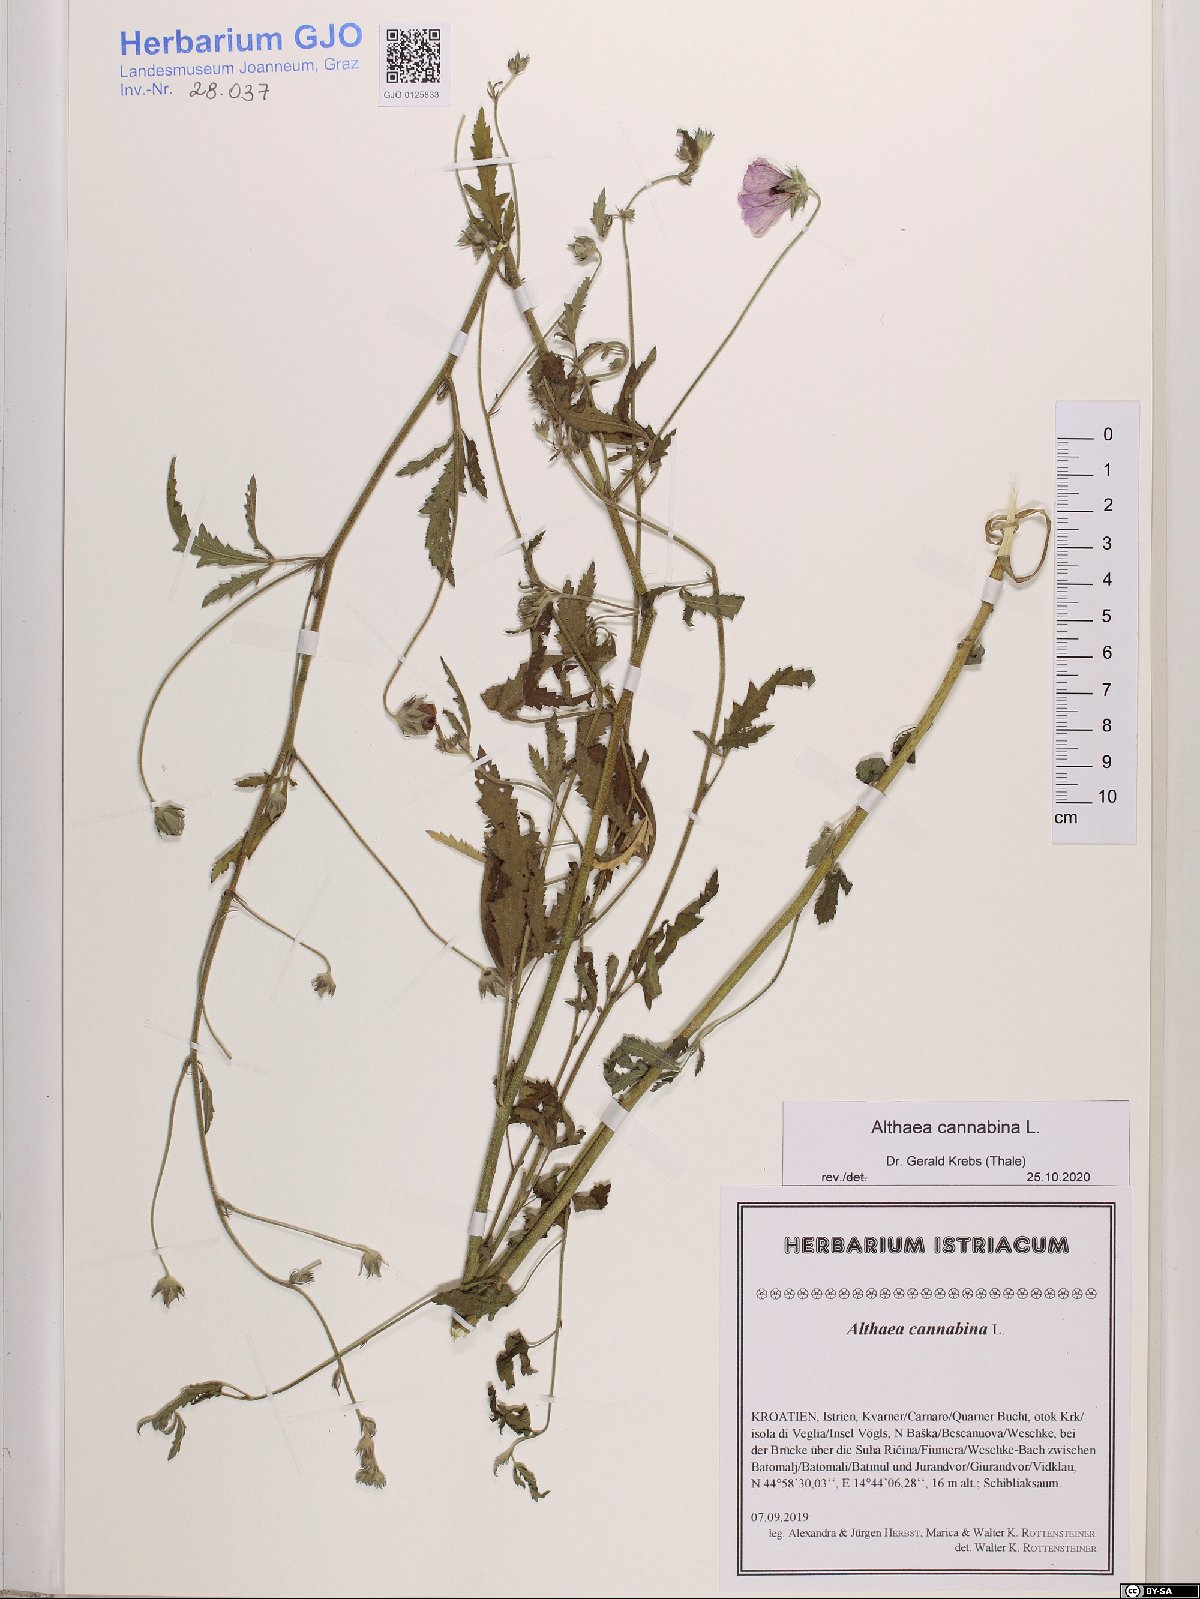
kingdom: Plantae
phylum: Tracheophyta
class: Magnoliopsida
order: Malvales
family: Malvaceae
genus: Althaea
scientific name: Althaea cannabina
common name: Palm-leaf marshmallow
